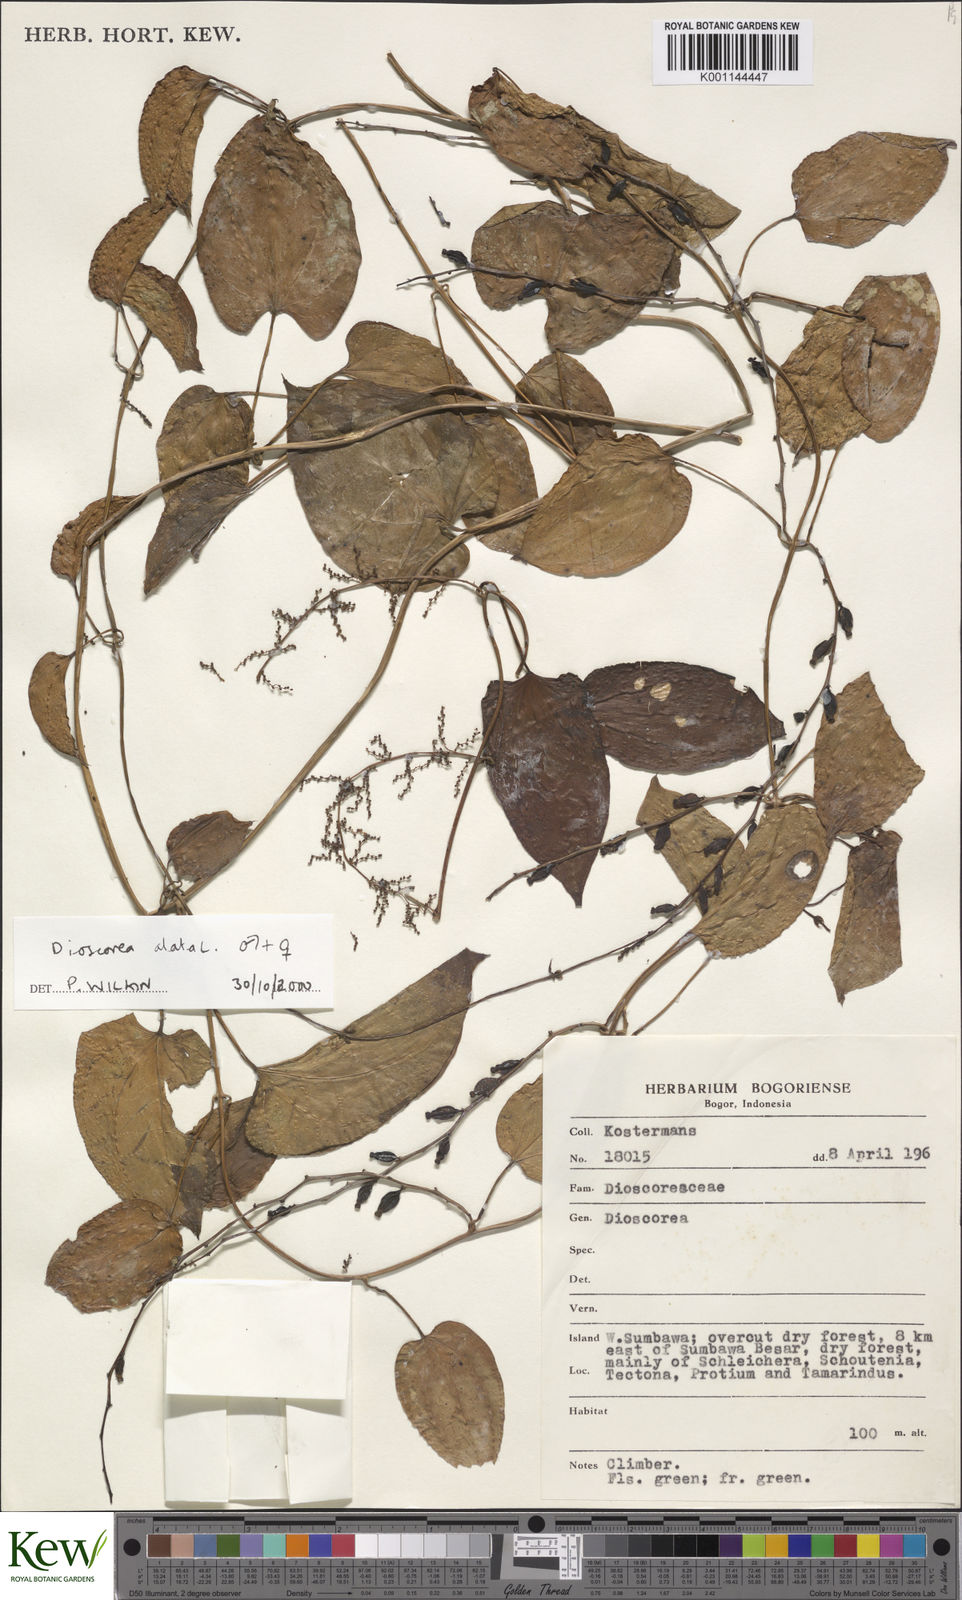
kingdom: Plantae
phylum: Tracheophyta
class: Liliopsida
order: Dioscoreales
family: Dioscoreaceae
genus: Dioscorea
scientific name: Dioscorea alata
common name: Water yam
